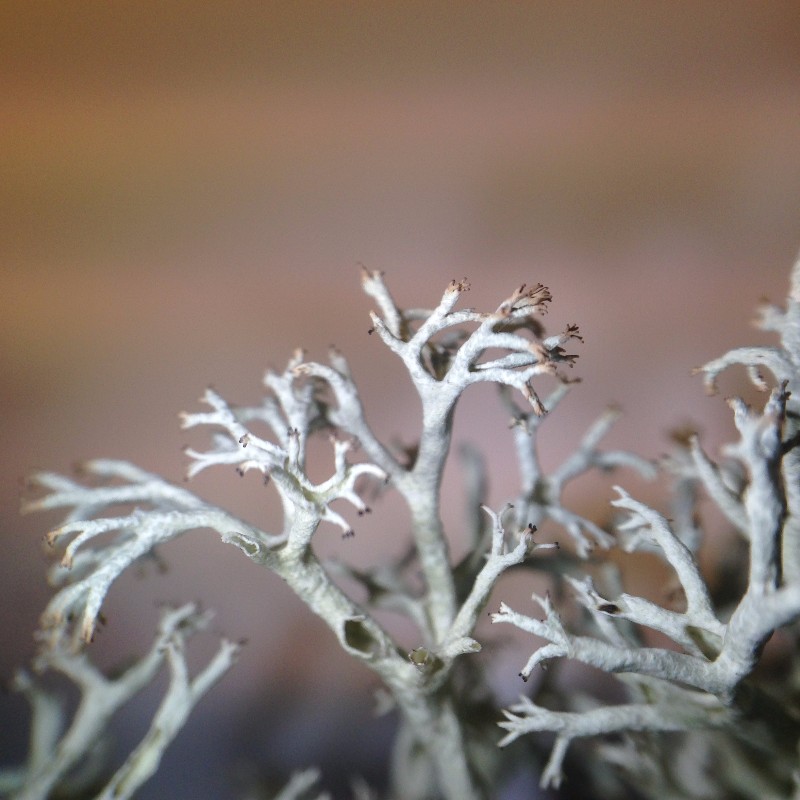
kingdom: Fungi
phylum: Ascomycota
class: Lecanoromycetes
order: Lecanorales
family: Cladoniaceae
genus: Cladonia
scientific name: Cladonia
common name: Gulhvid rensdyrlav
